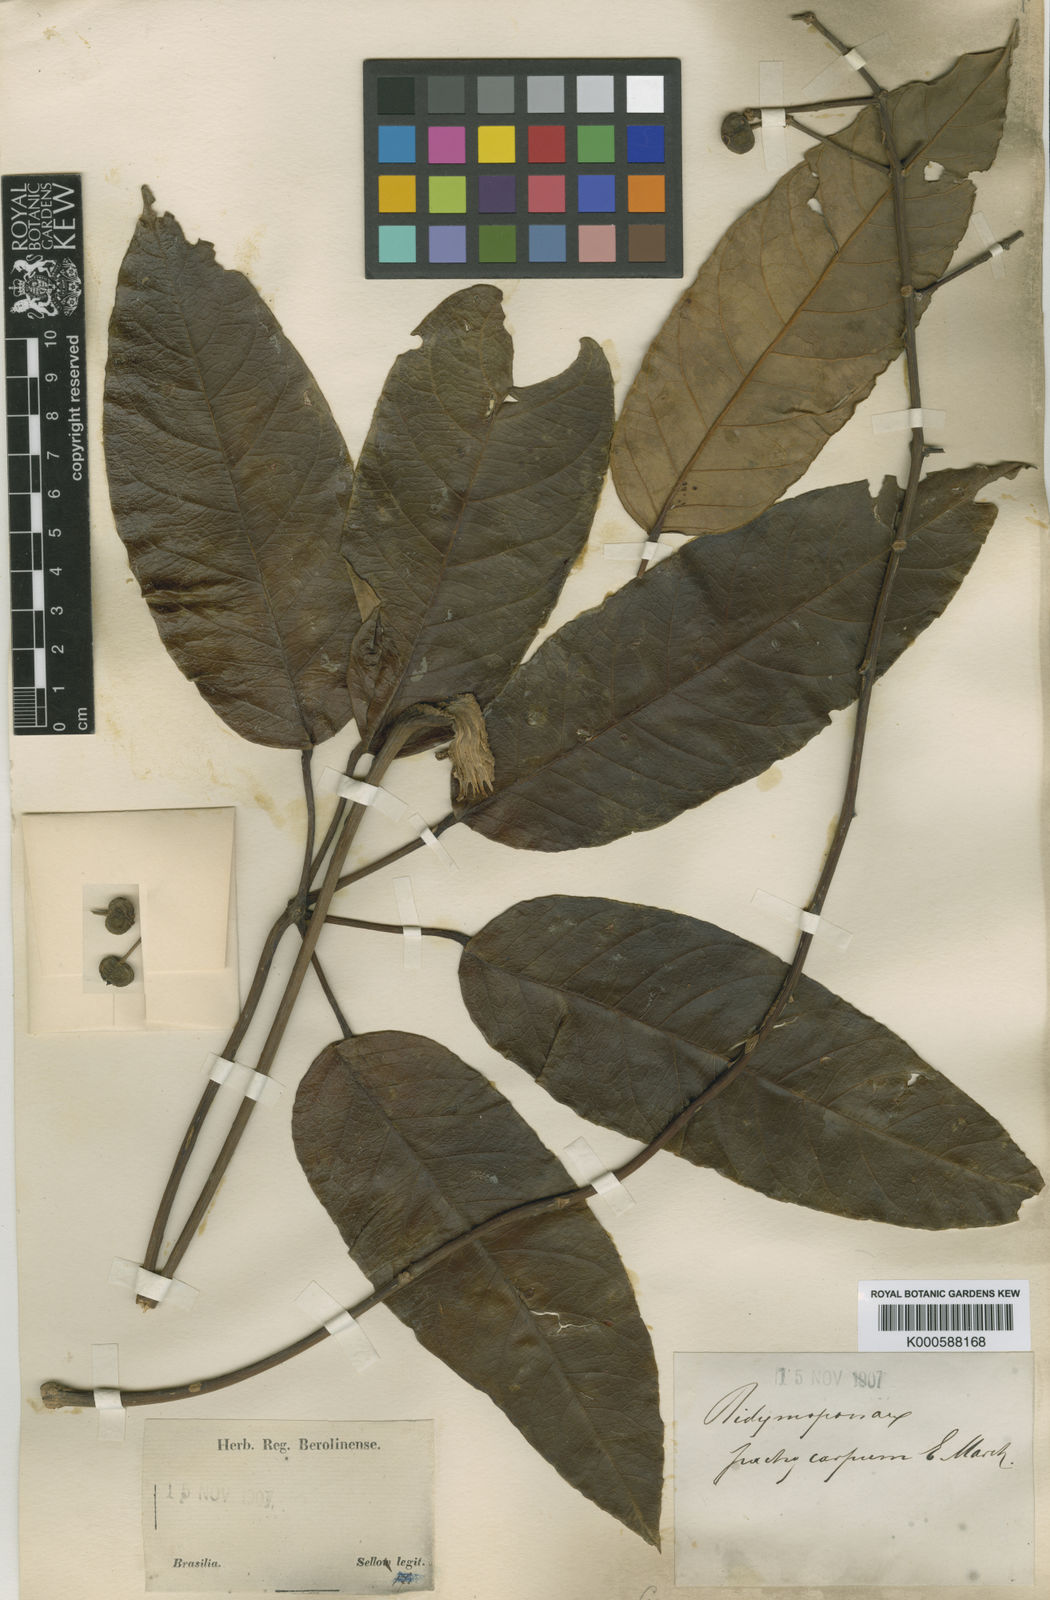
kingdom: Plantae
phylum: Tracheophyta
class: Magnoliopsida
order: Apiales
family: Araliaceae
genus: Didymopanax
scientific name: Didymopanax calvus
